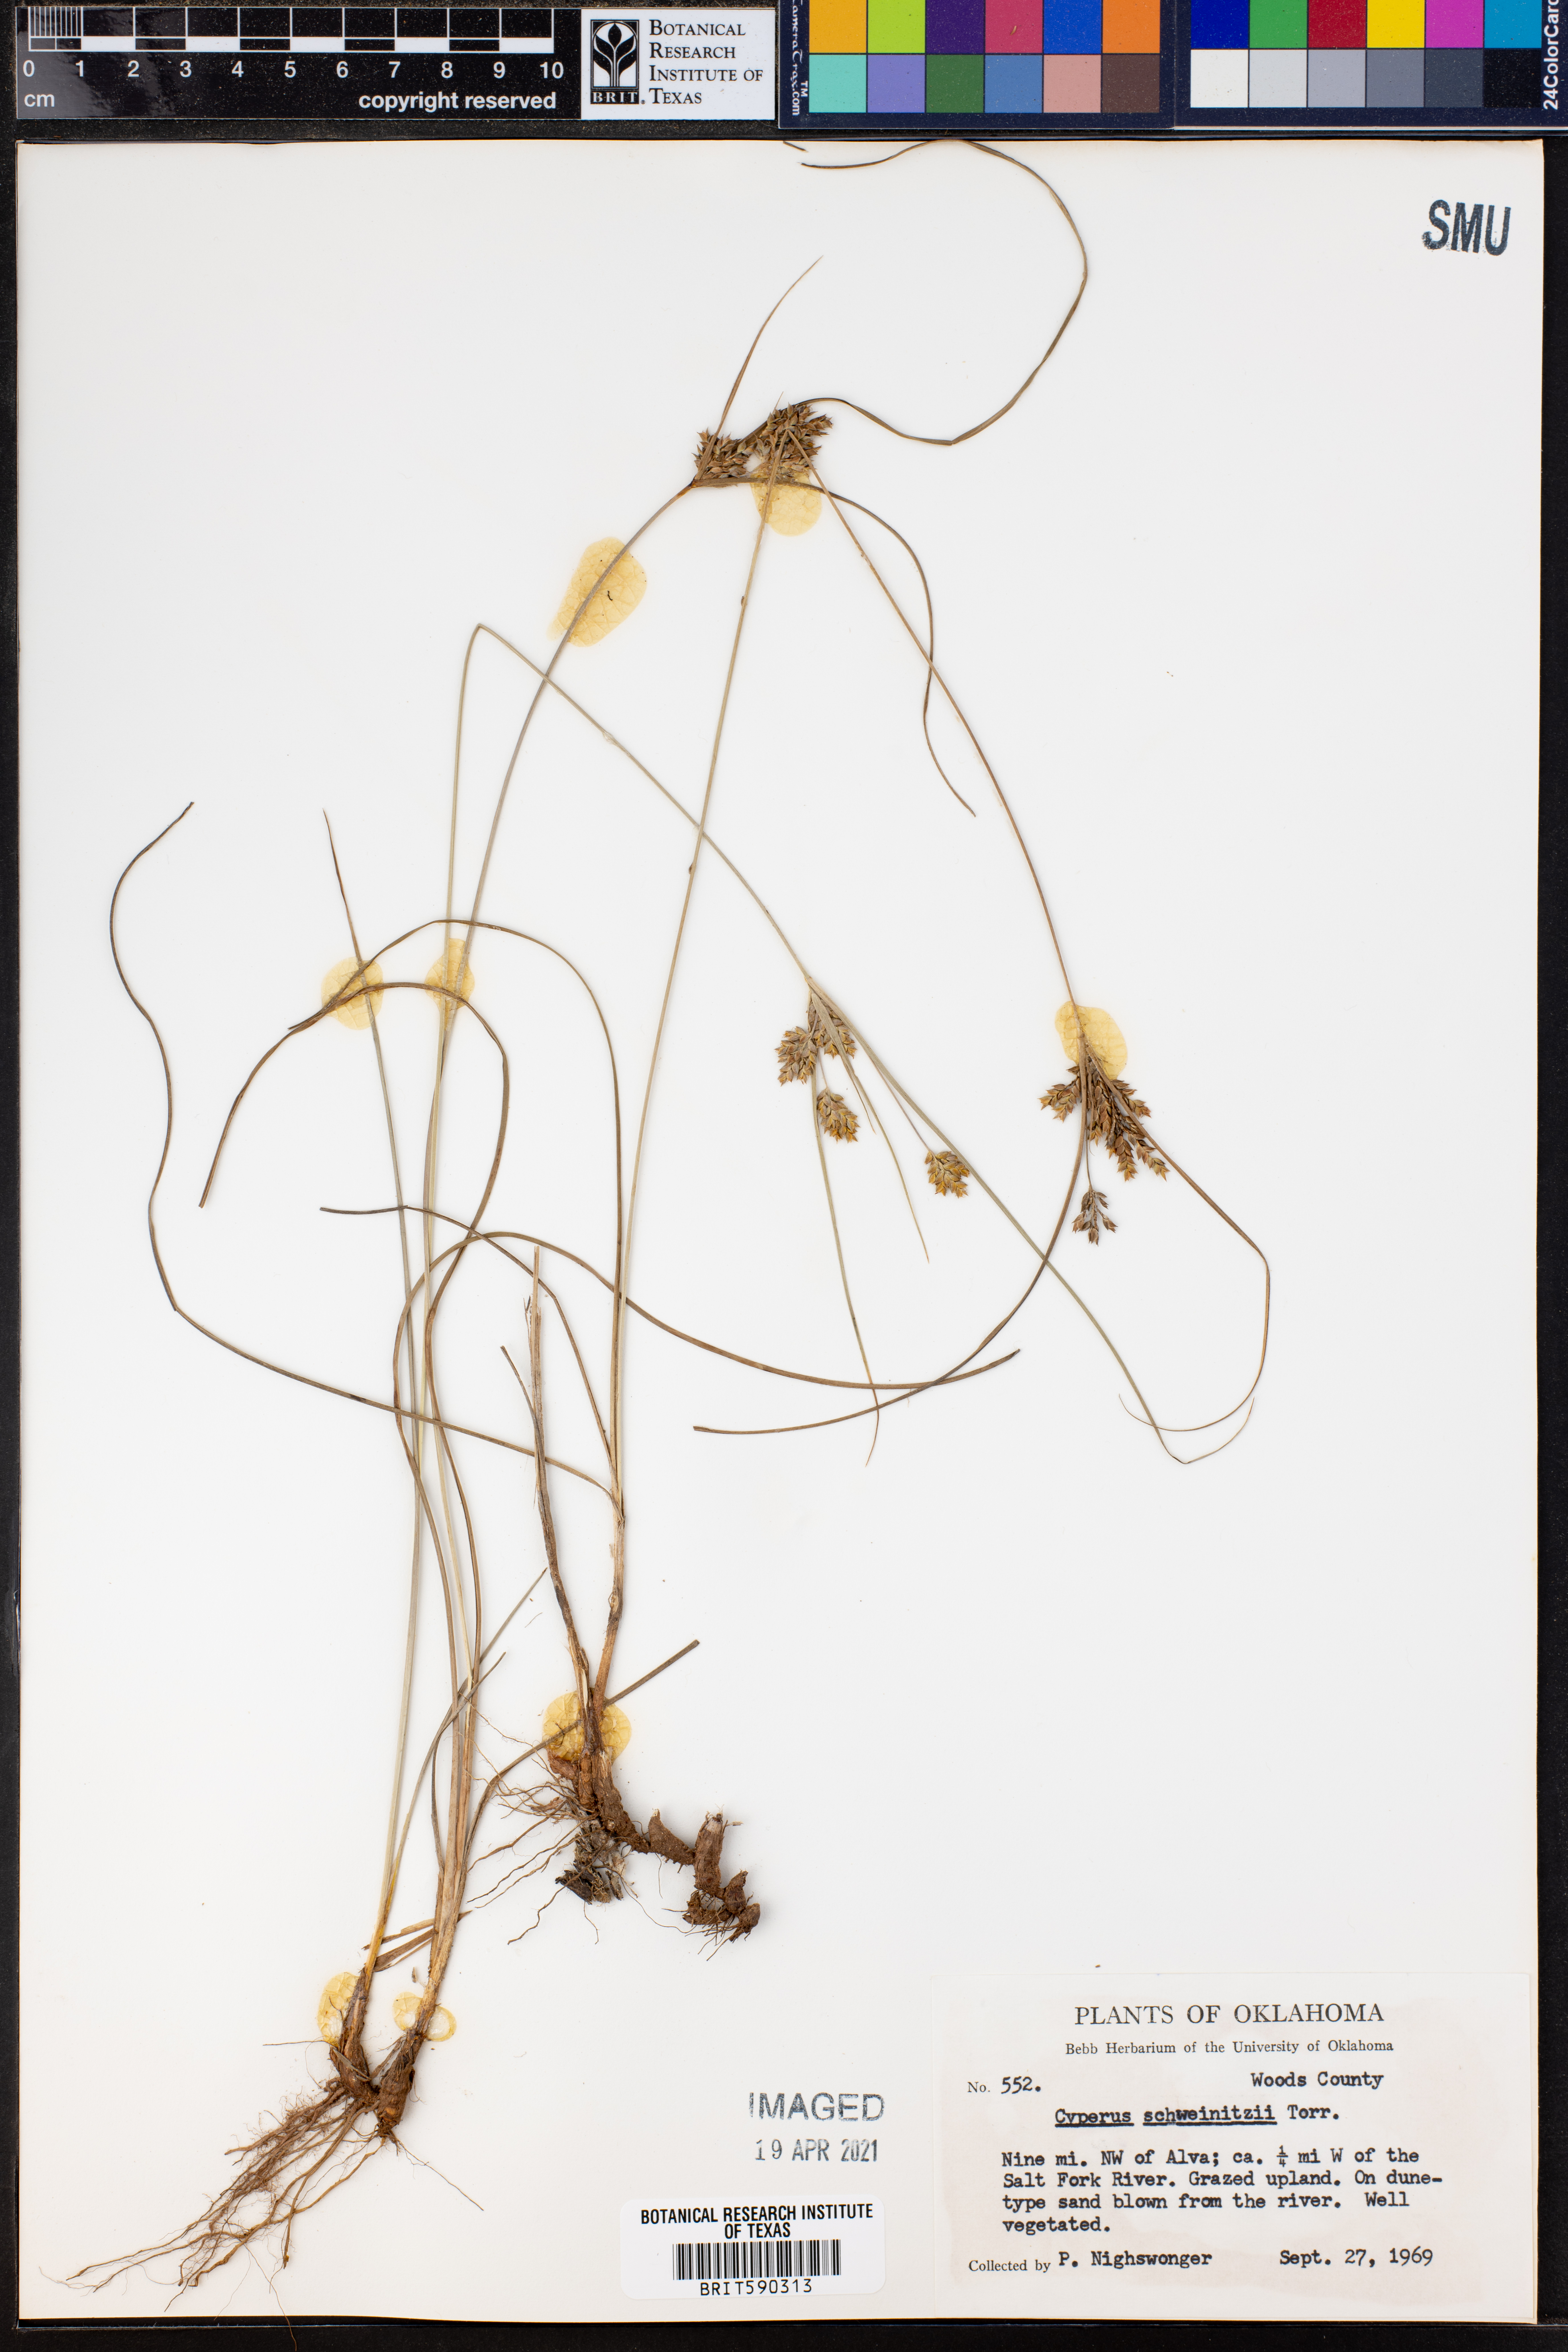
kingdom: Plantae
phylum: Tracheophyta
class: Liliopsida
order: Poales
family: Cyperaceae
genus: Cyperus
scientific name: Cyperus schweinitzii
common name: Schweinitz's cyperus
